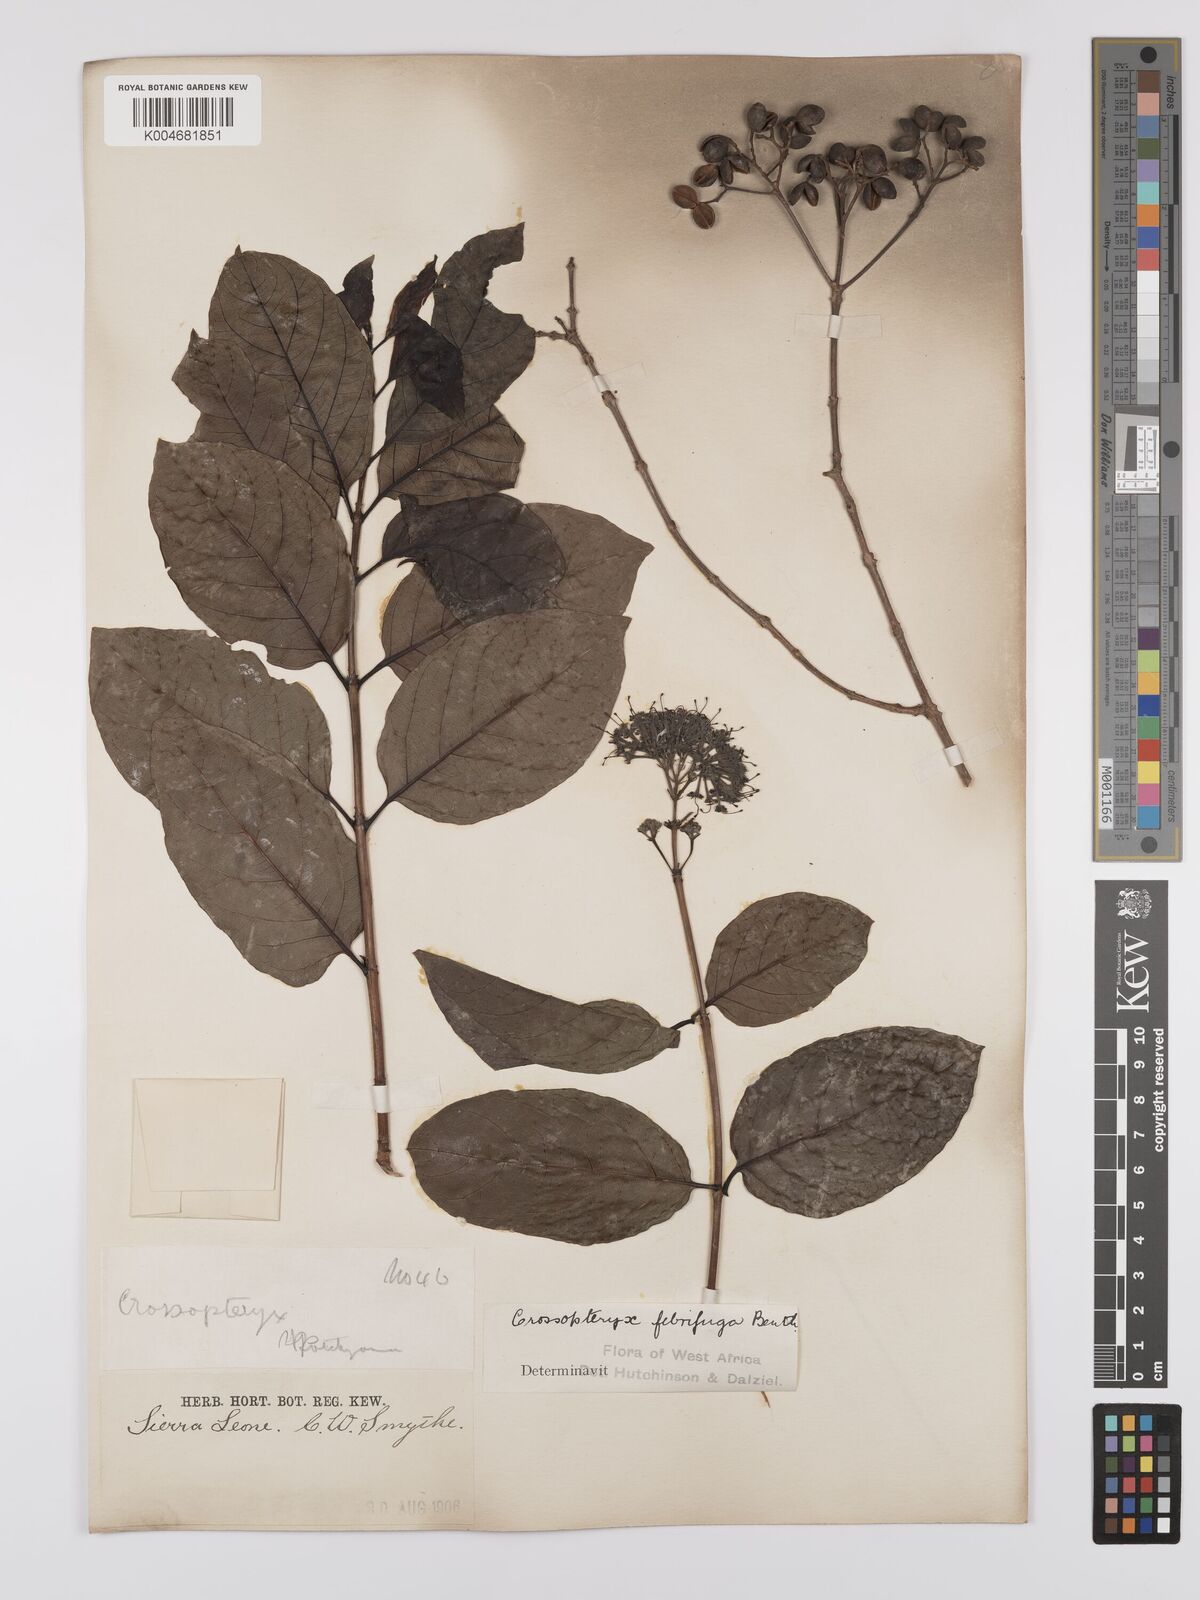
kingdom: Plantae
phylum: Tracheophyta
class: Magnoliopsida
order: Gentianales
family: Rubiaceae
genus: Crossopteryx
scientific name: Crossopteryx febrifuga
